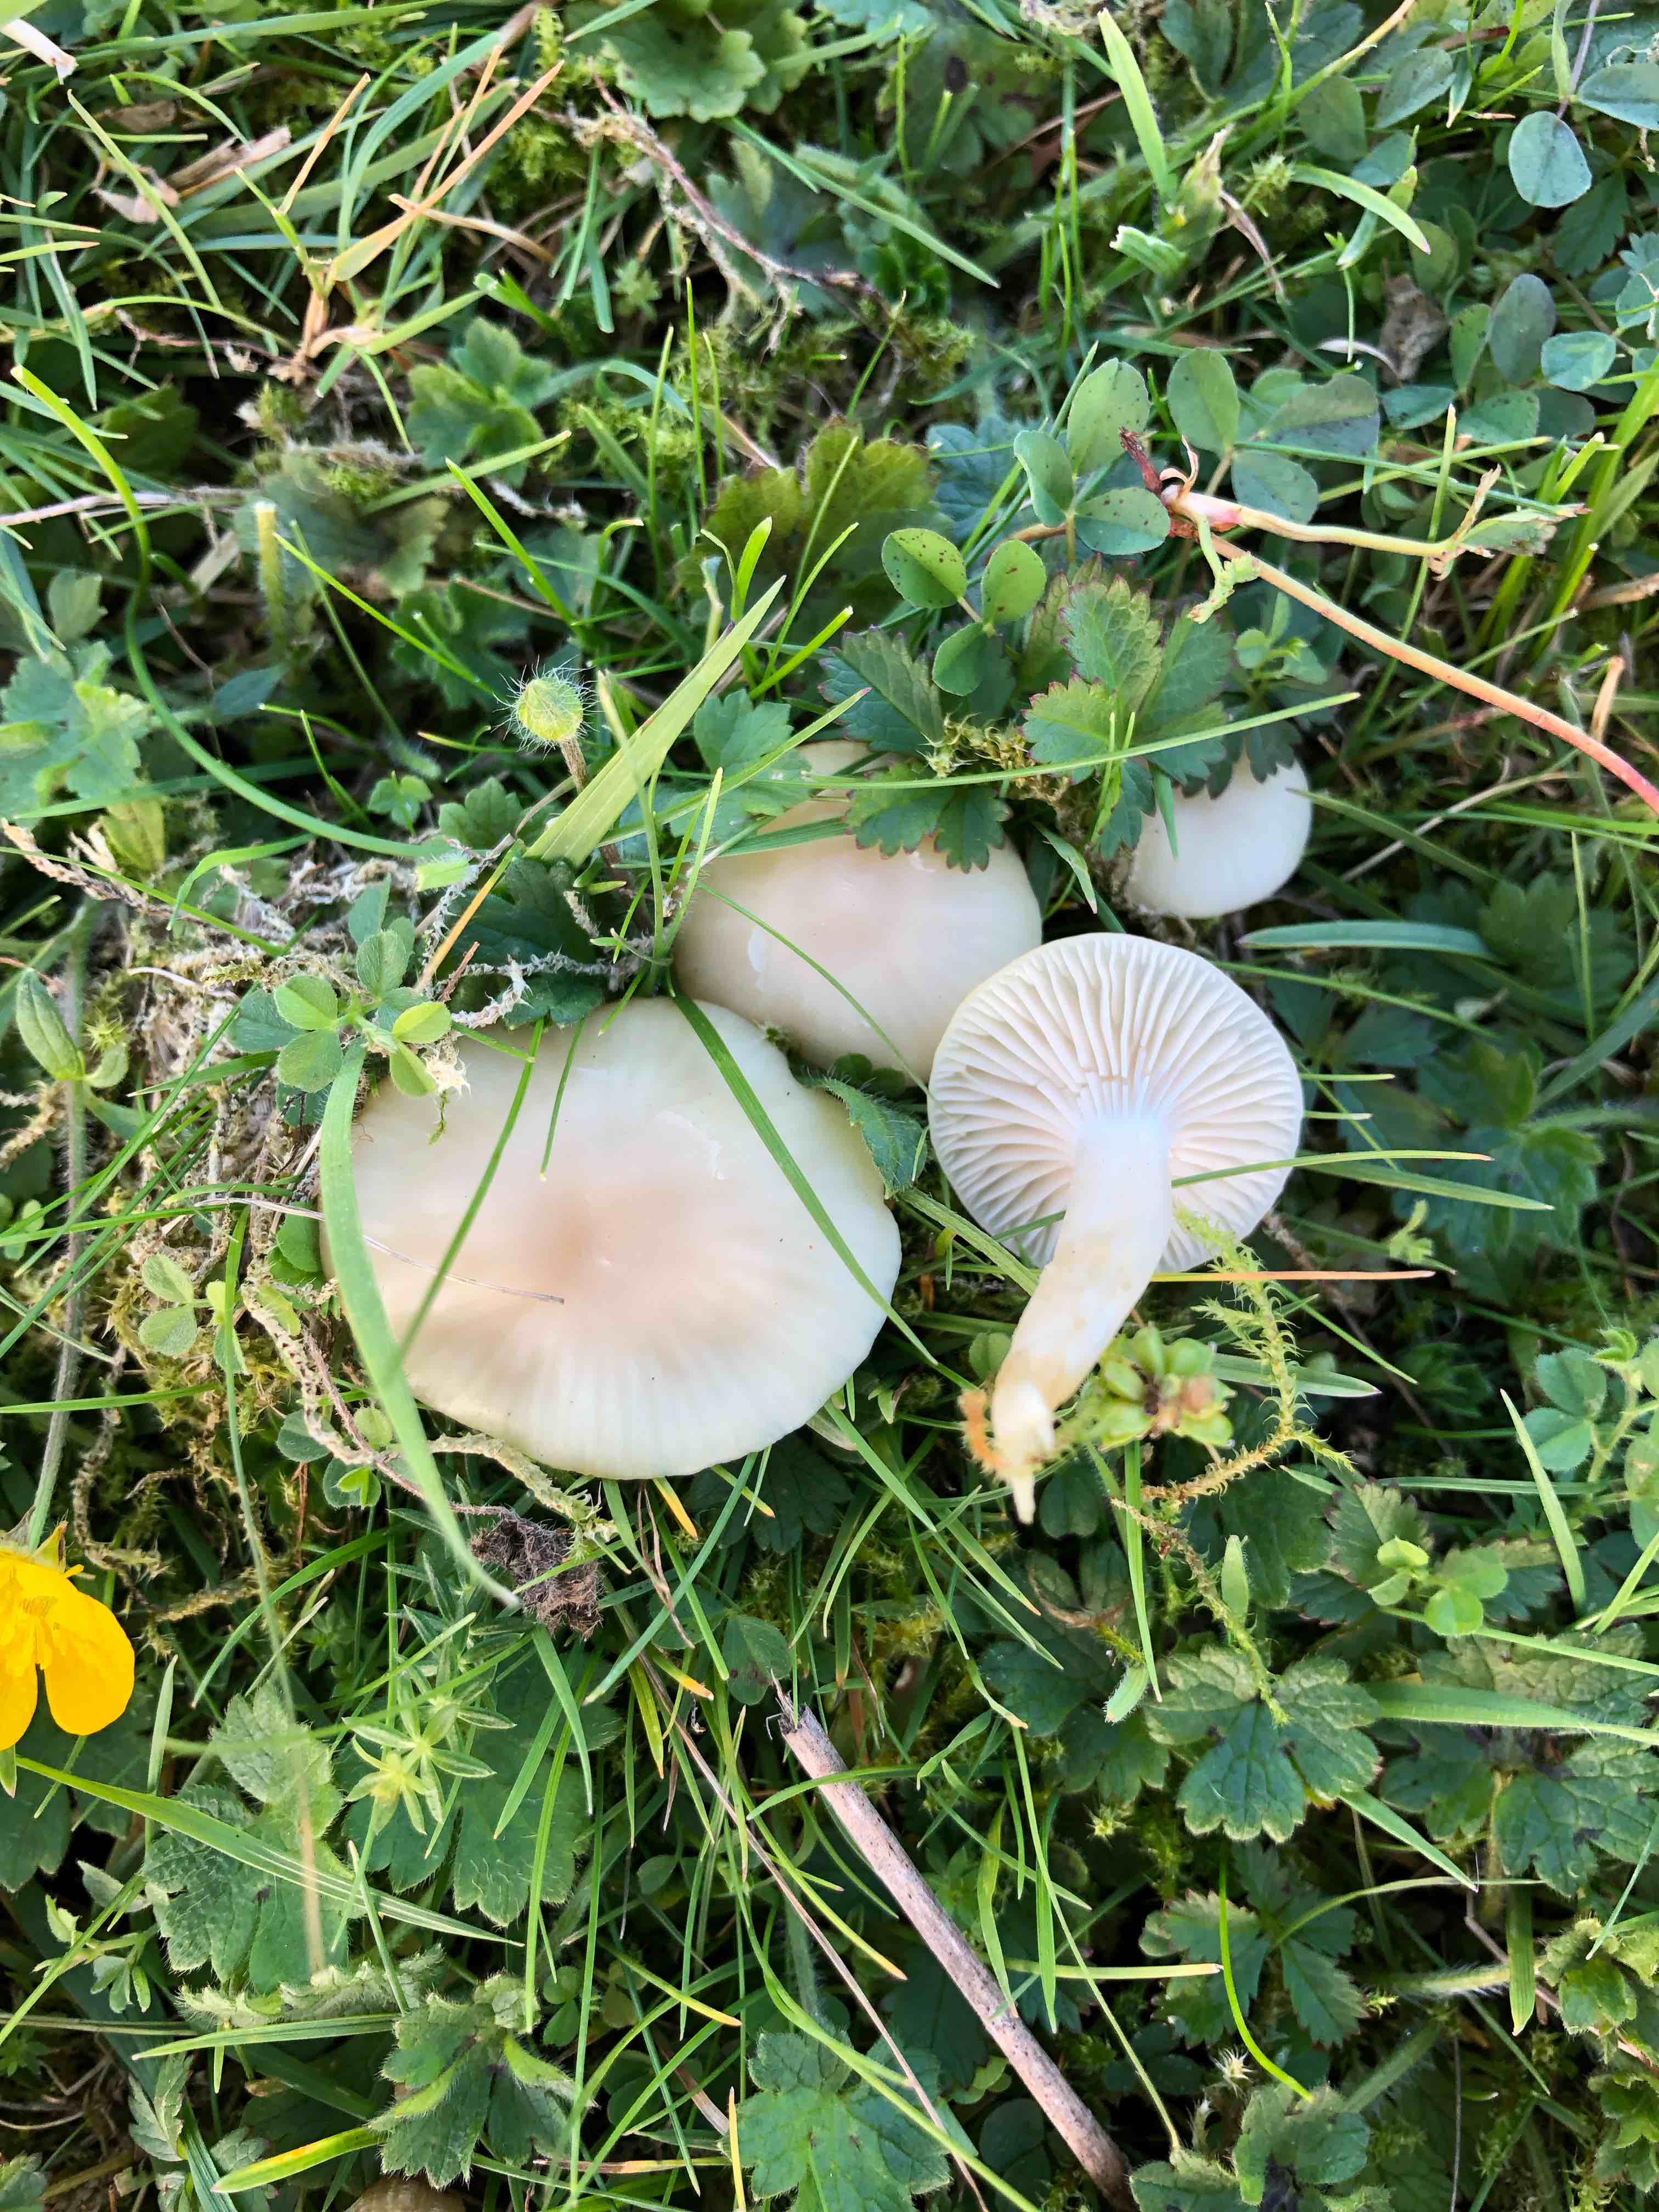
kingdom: Fungi
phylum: Basidiomycota
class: Agaricomycetes
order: Agaricales
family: Hygrophoraceae
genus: Cuphophyllus
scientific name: Cuphophyllus virgineus
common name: snehvid vokshat
